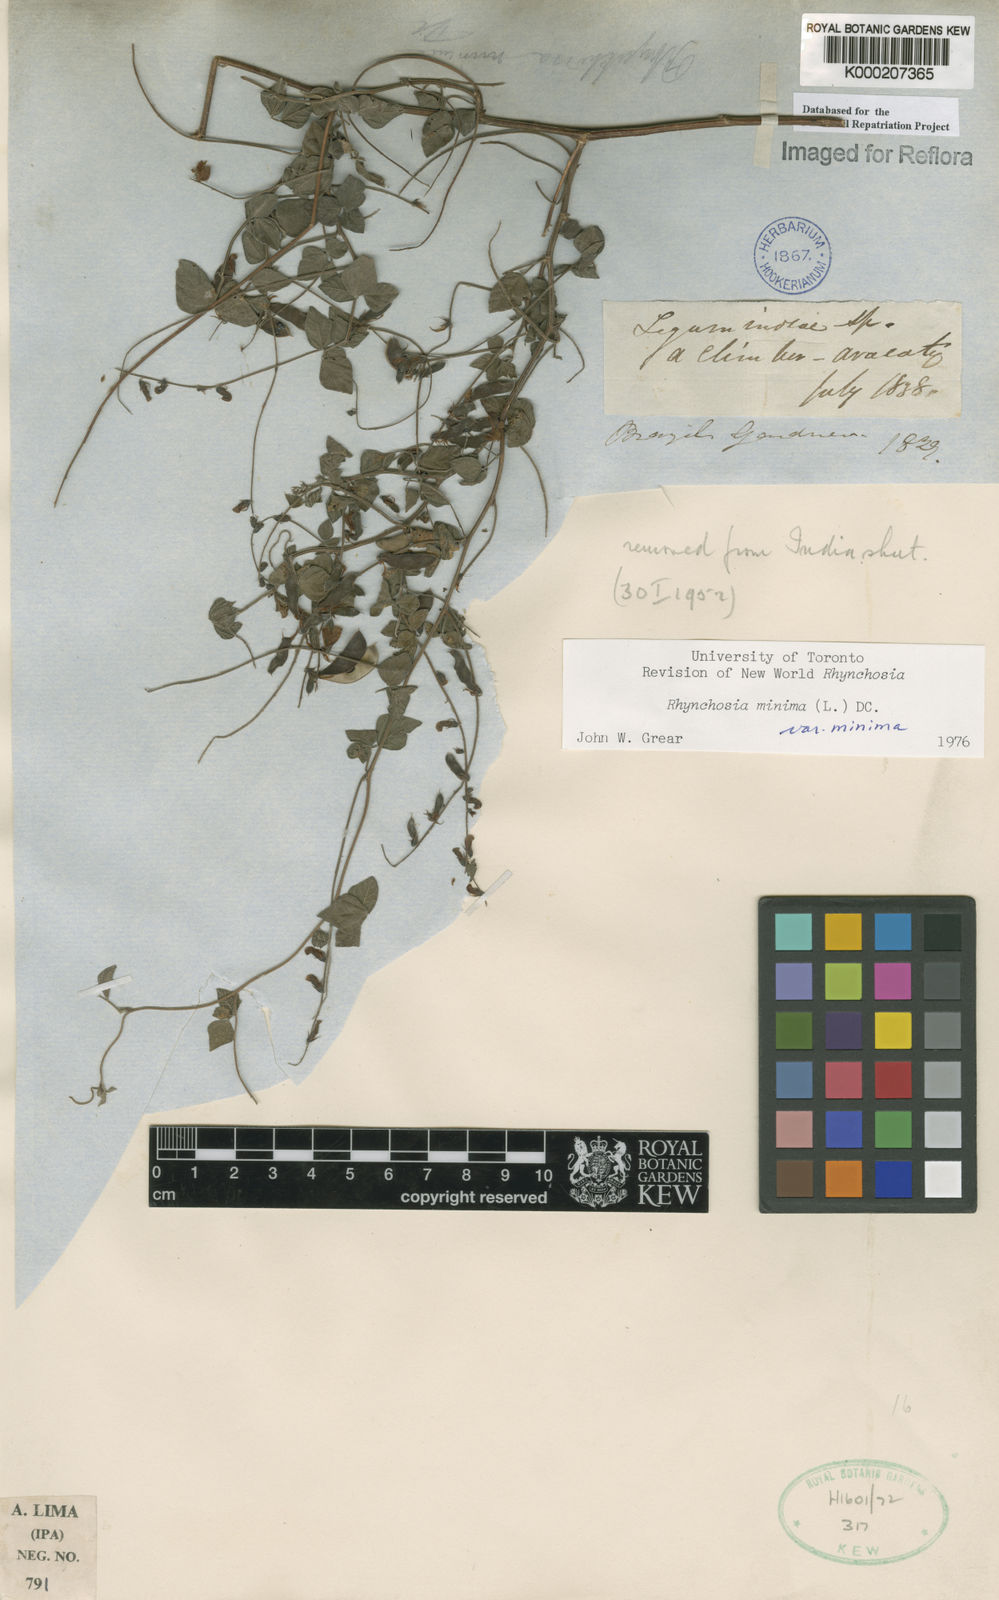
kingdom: Plantae
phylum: Tracheophyta
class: Magnoliopsida
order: Fabales
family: Fabaceae
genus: Rhynchosia
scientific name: Rhynchosia minima
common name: Least snoutbean
